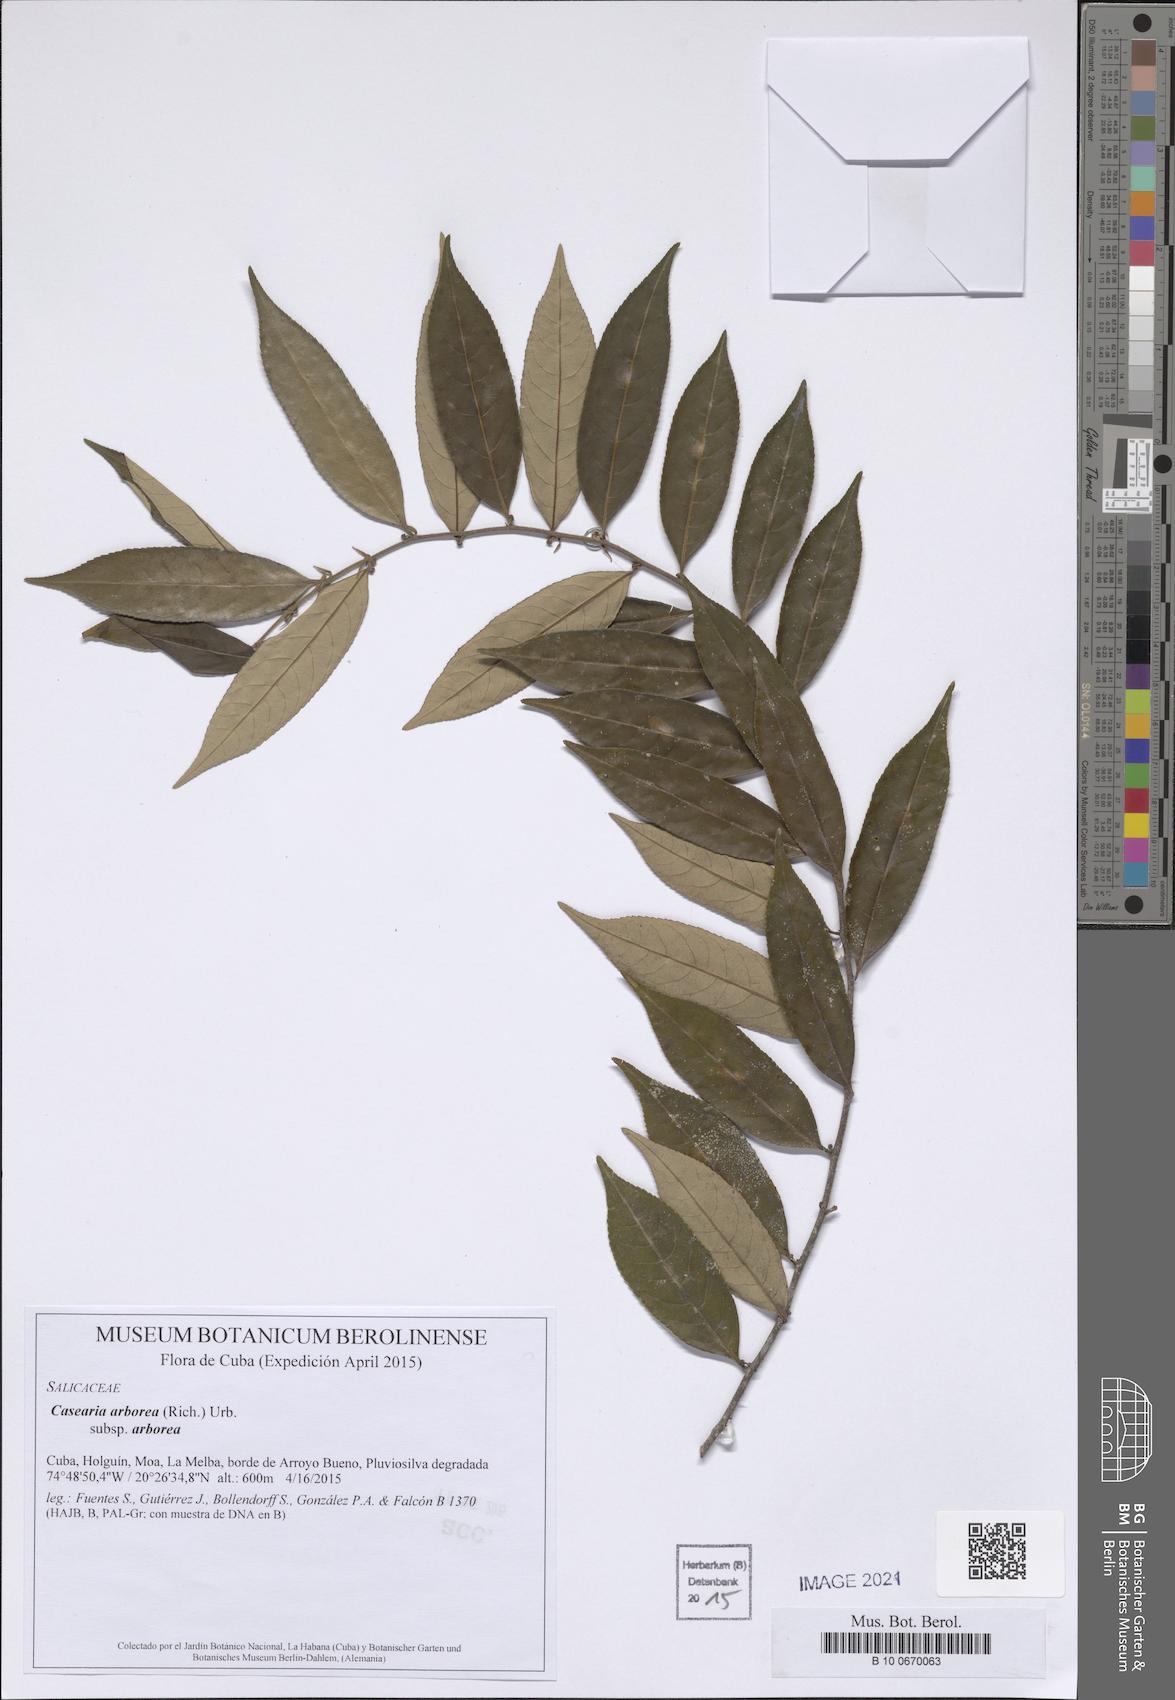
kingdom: Plantae
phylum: Tracheophyta
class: Magnoliopsida
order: Malpighiales
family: Salicaceae
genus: Casearia
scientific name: Casearia arborea
